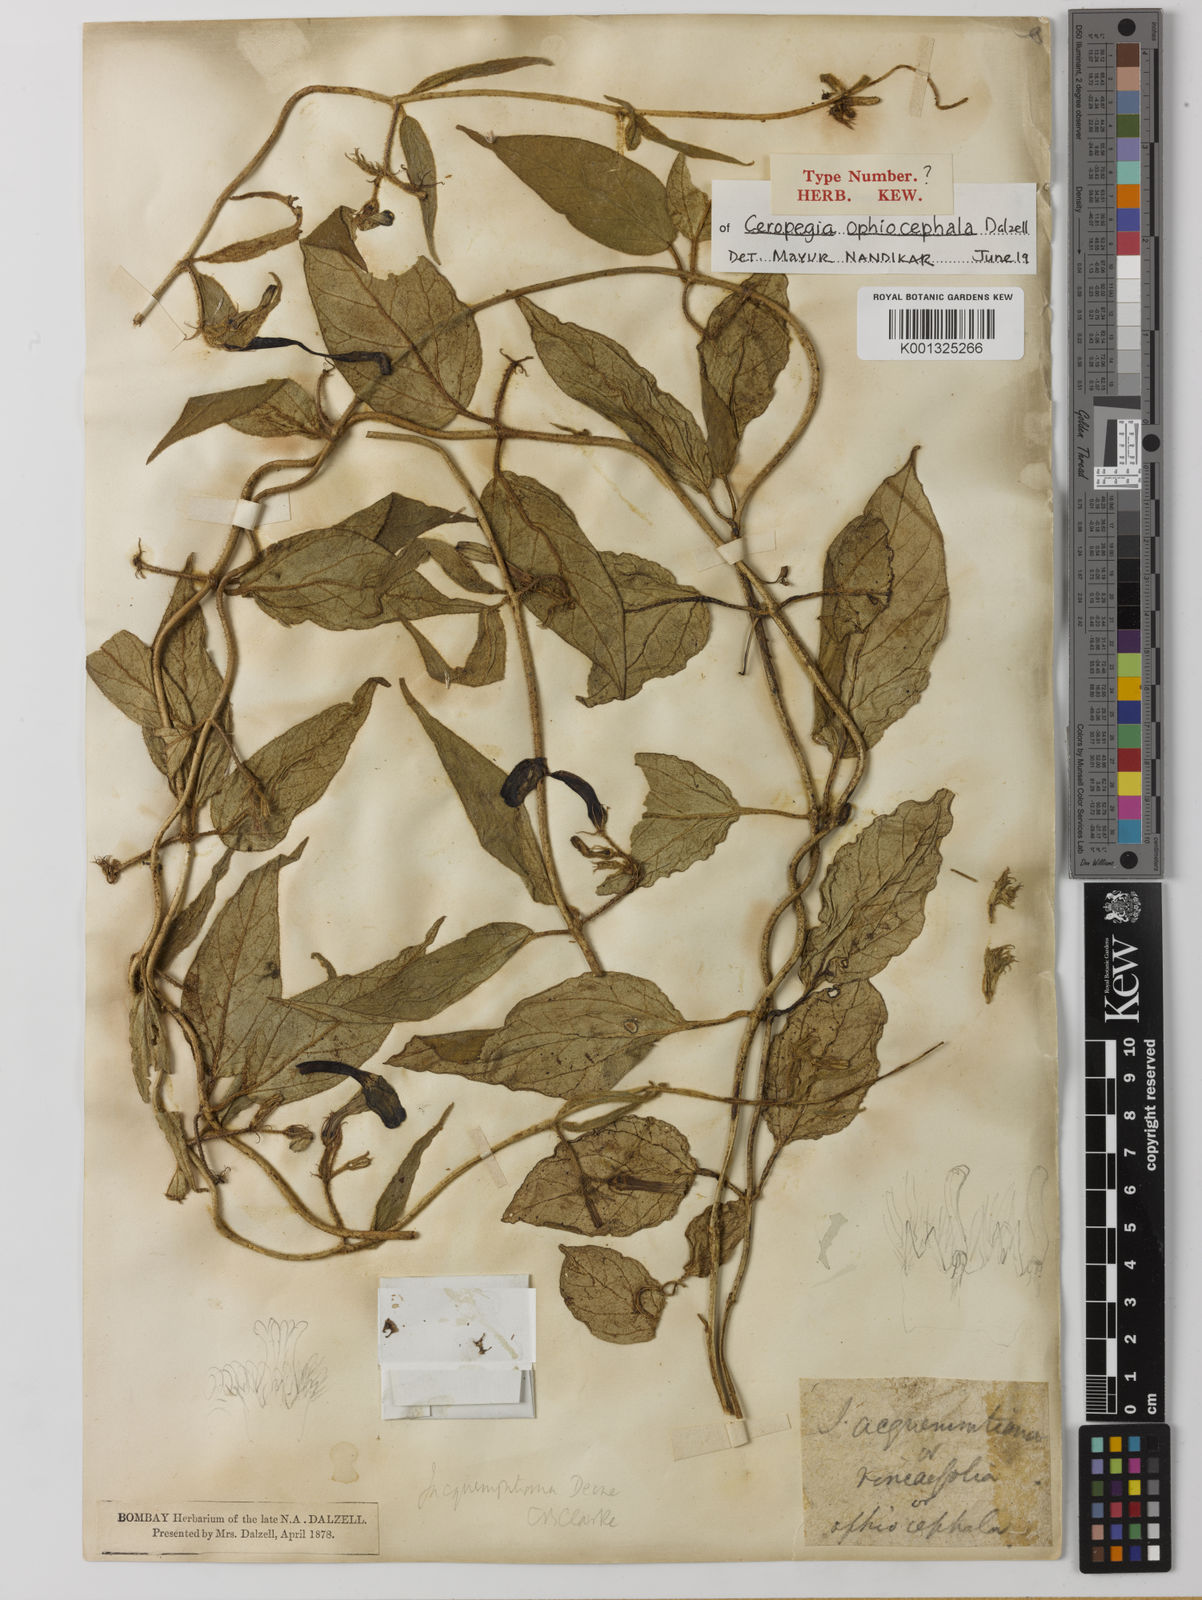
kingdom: Plantae
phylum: Tracheophyta
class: Magnoliopsida
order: Gentianales
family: Apocynaceae
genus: Ceropegia
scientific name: Ceropegia hirsuta
